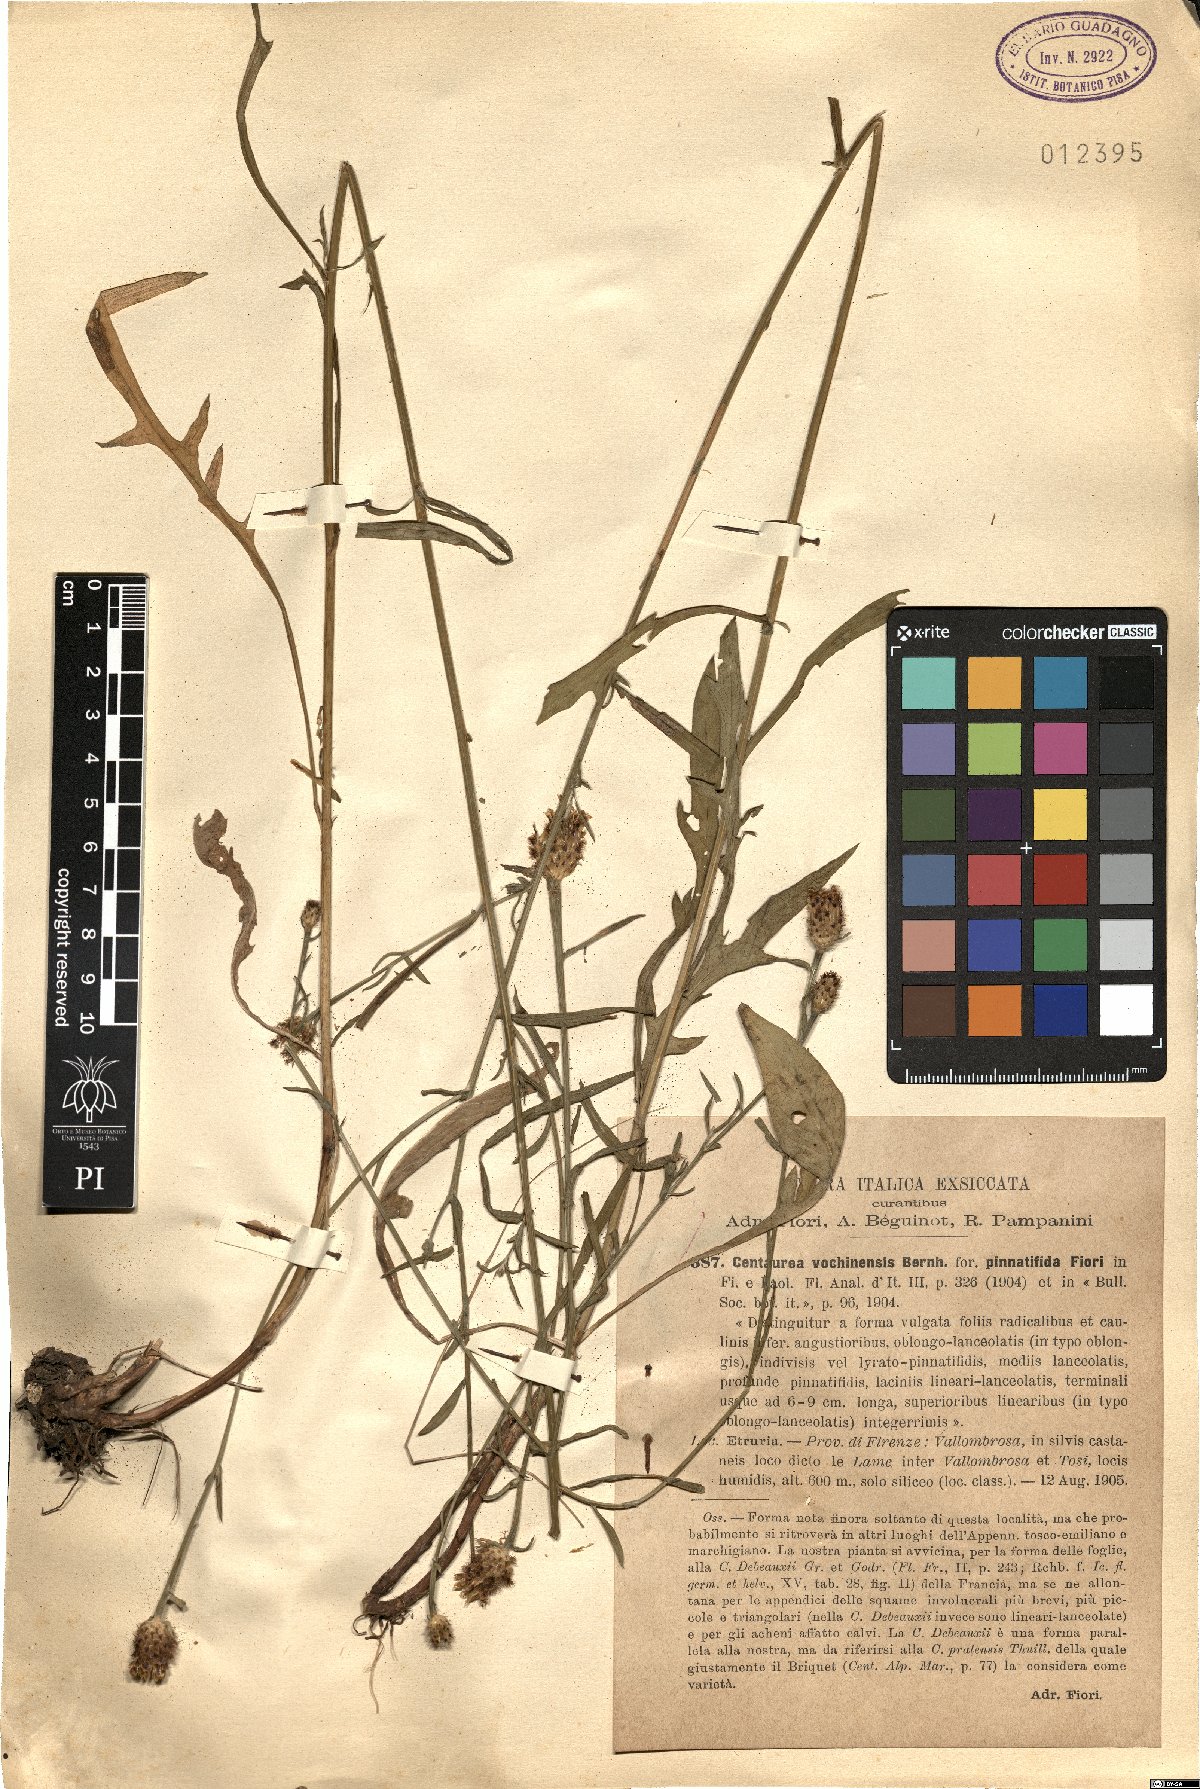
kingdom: Plantae
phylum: Tracheophyta
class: Magnoliopsida
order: Asterales
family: Asteraceae
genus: Centaurea
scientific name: Centaurea nigrescens
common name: Tyrol knapweed
